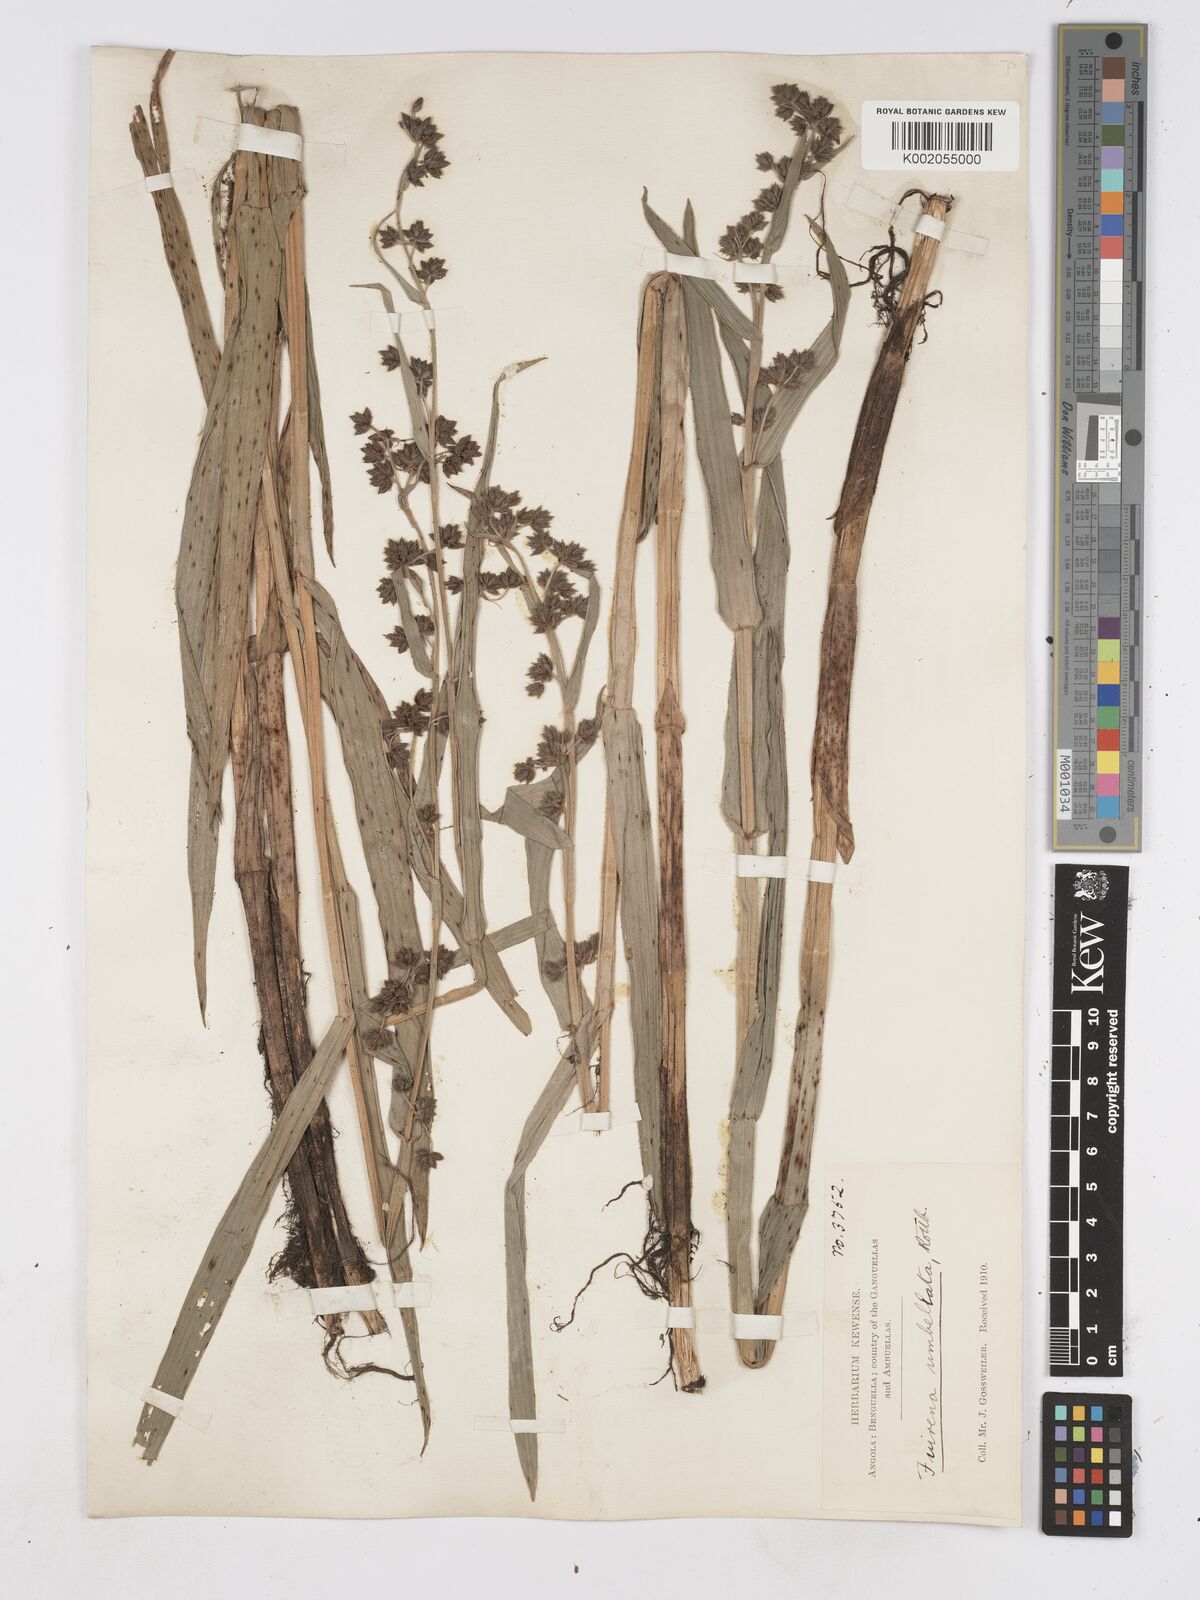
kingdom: Plantae
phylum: Tracheophyta
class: Liliopsida
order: Poales
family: Cyperaceae
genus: Fuirena
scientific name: Fuirena umbellata
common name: Yefen
